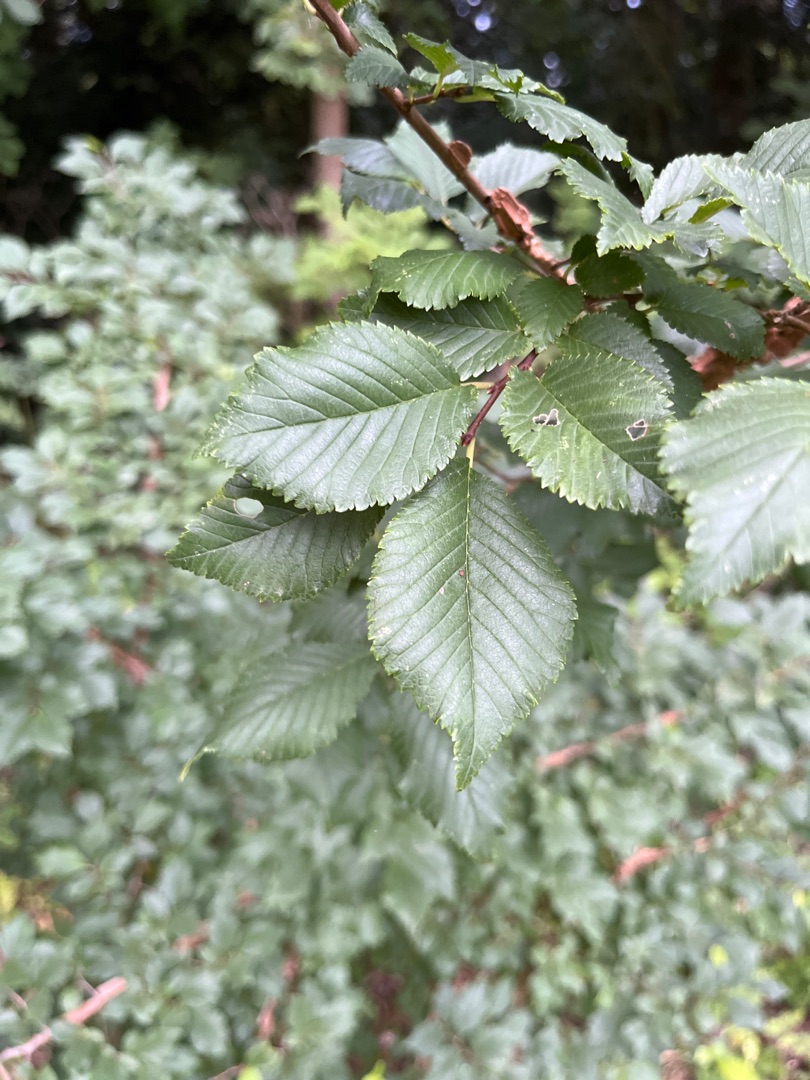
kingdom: Plantae
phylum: Tracheophyta
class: Magnoliopsida
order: Rosales
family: Ulmaceae
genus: Ulmus
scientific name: Ulmus minor
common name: Småbladet elm
